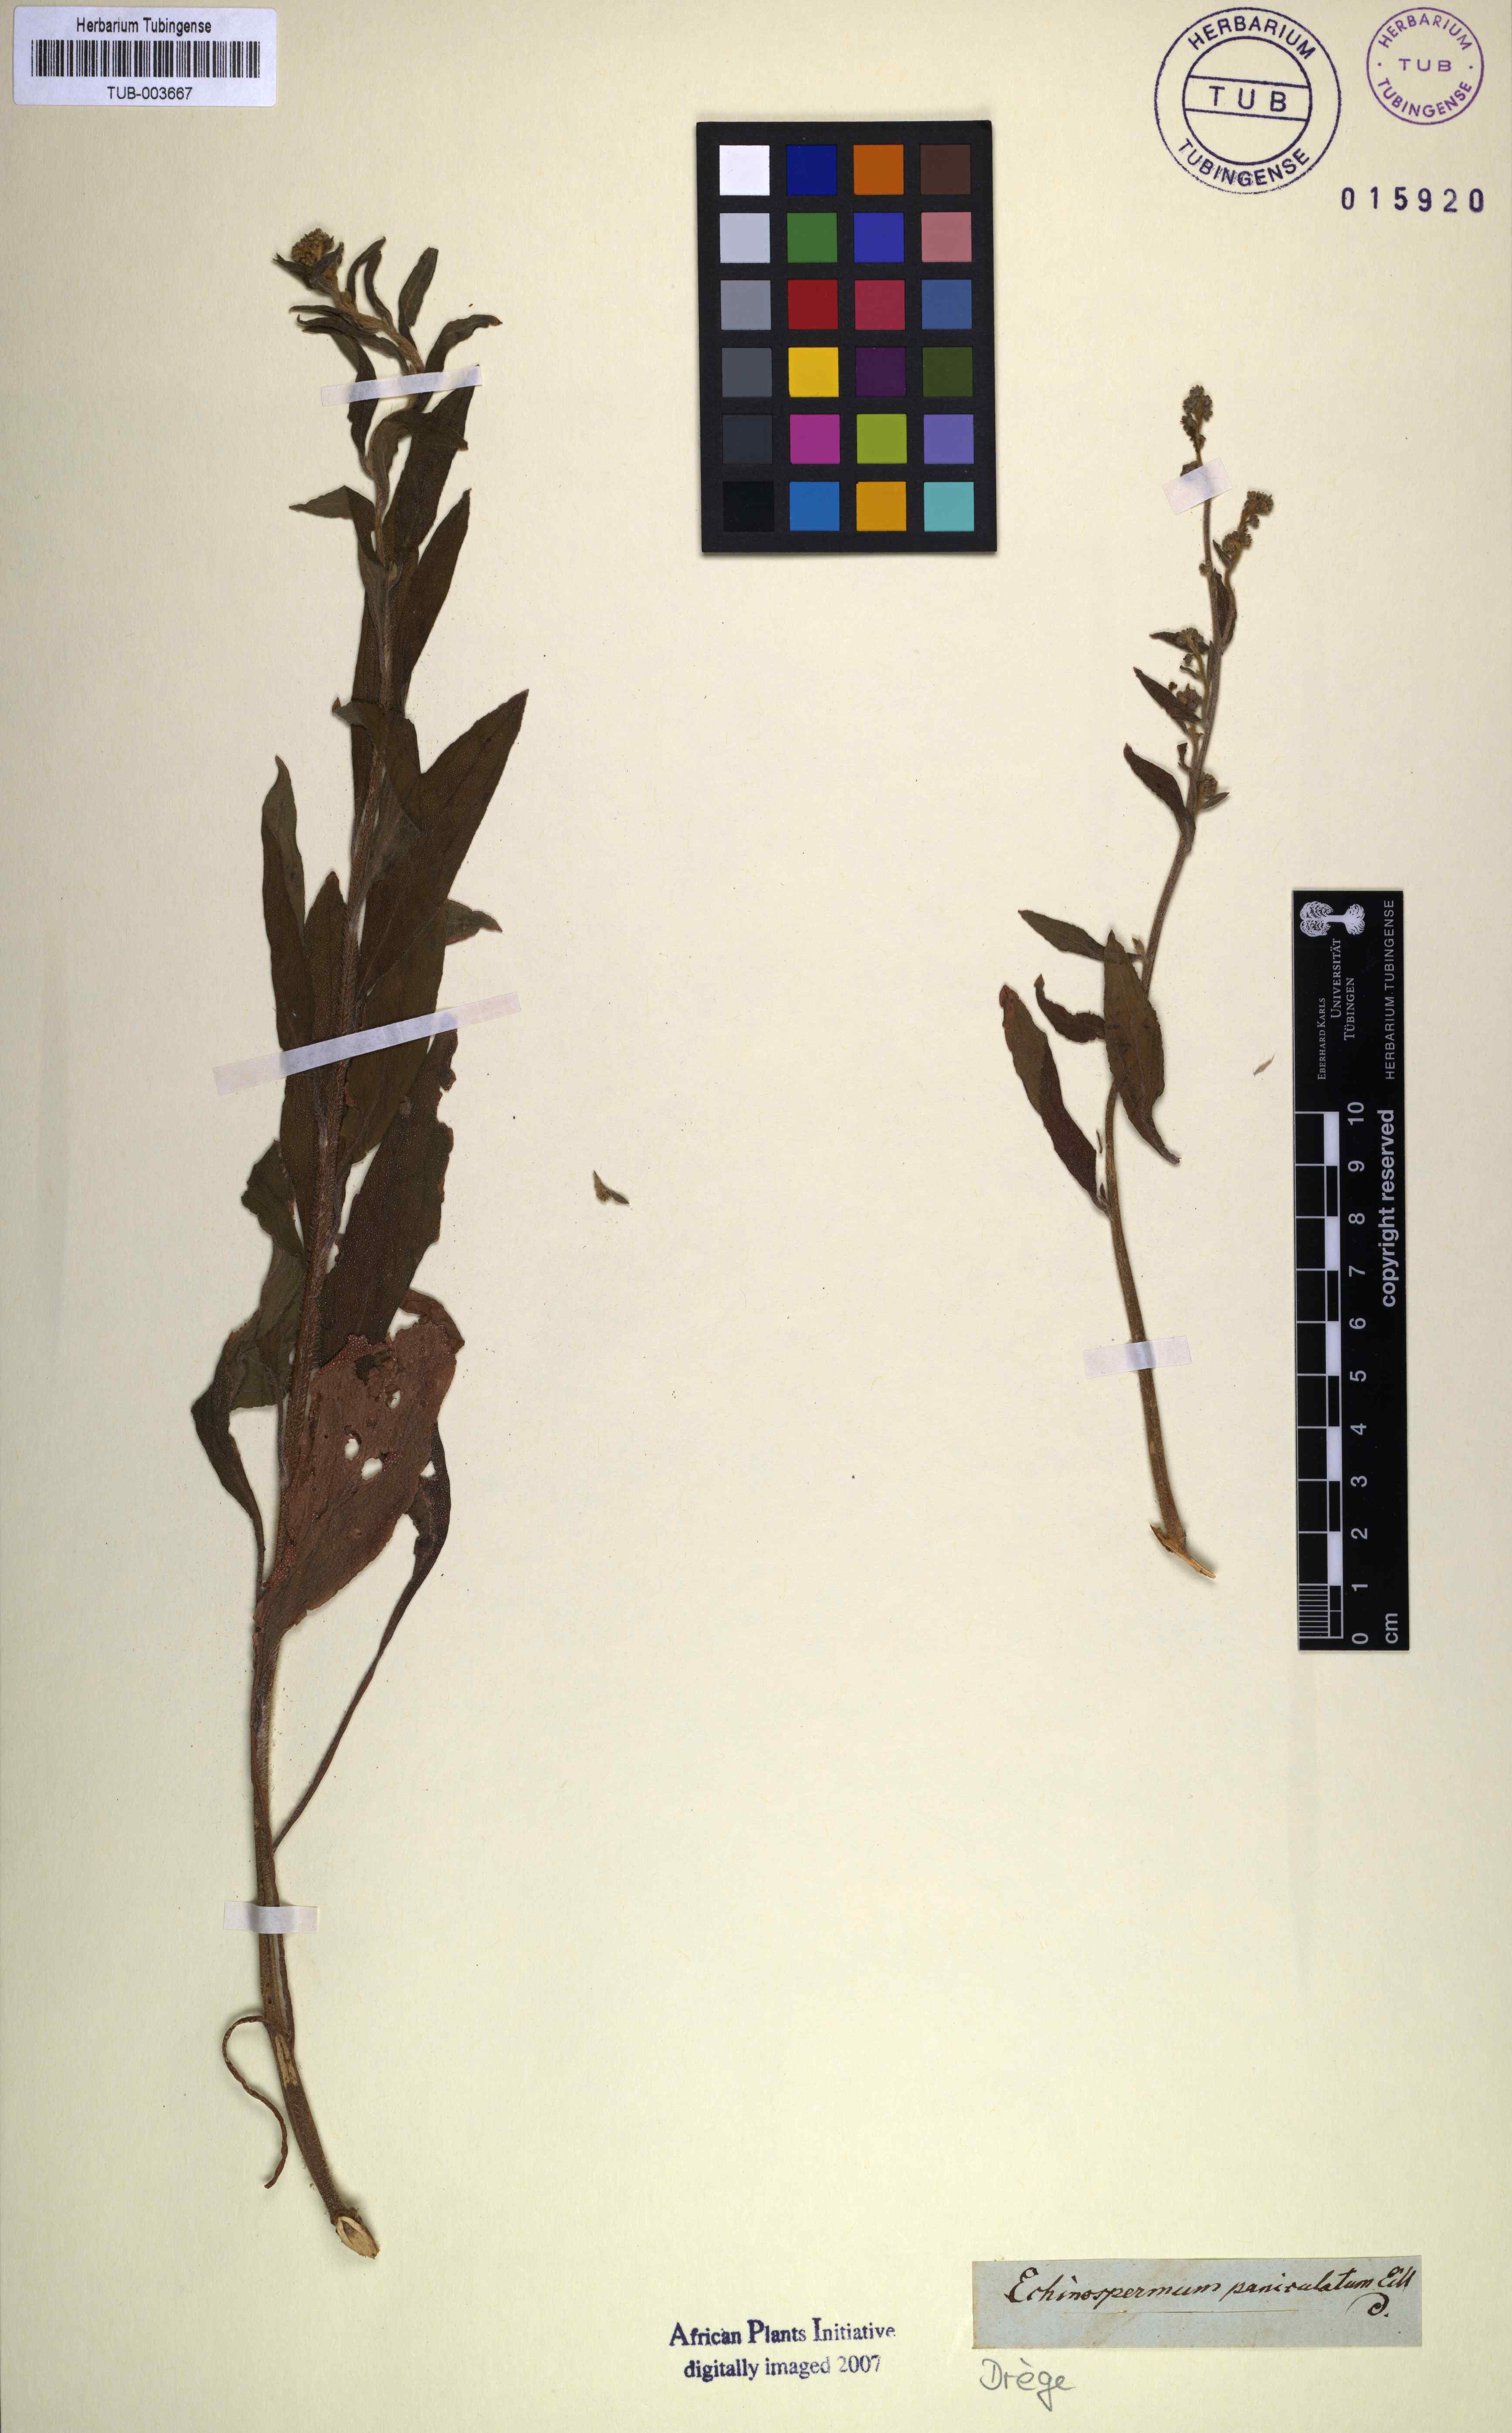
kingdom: Plantae
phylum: Tracheophyta
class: Magnoliopsida
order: Boraginales
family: Boraginaceae
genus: Paracynoglossum
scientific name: Paracynoglossum lanceolatum
